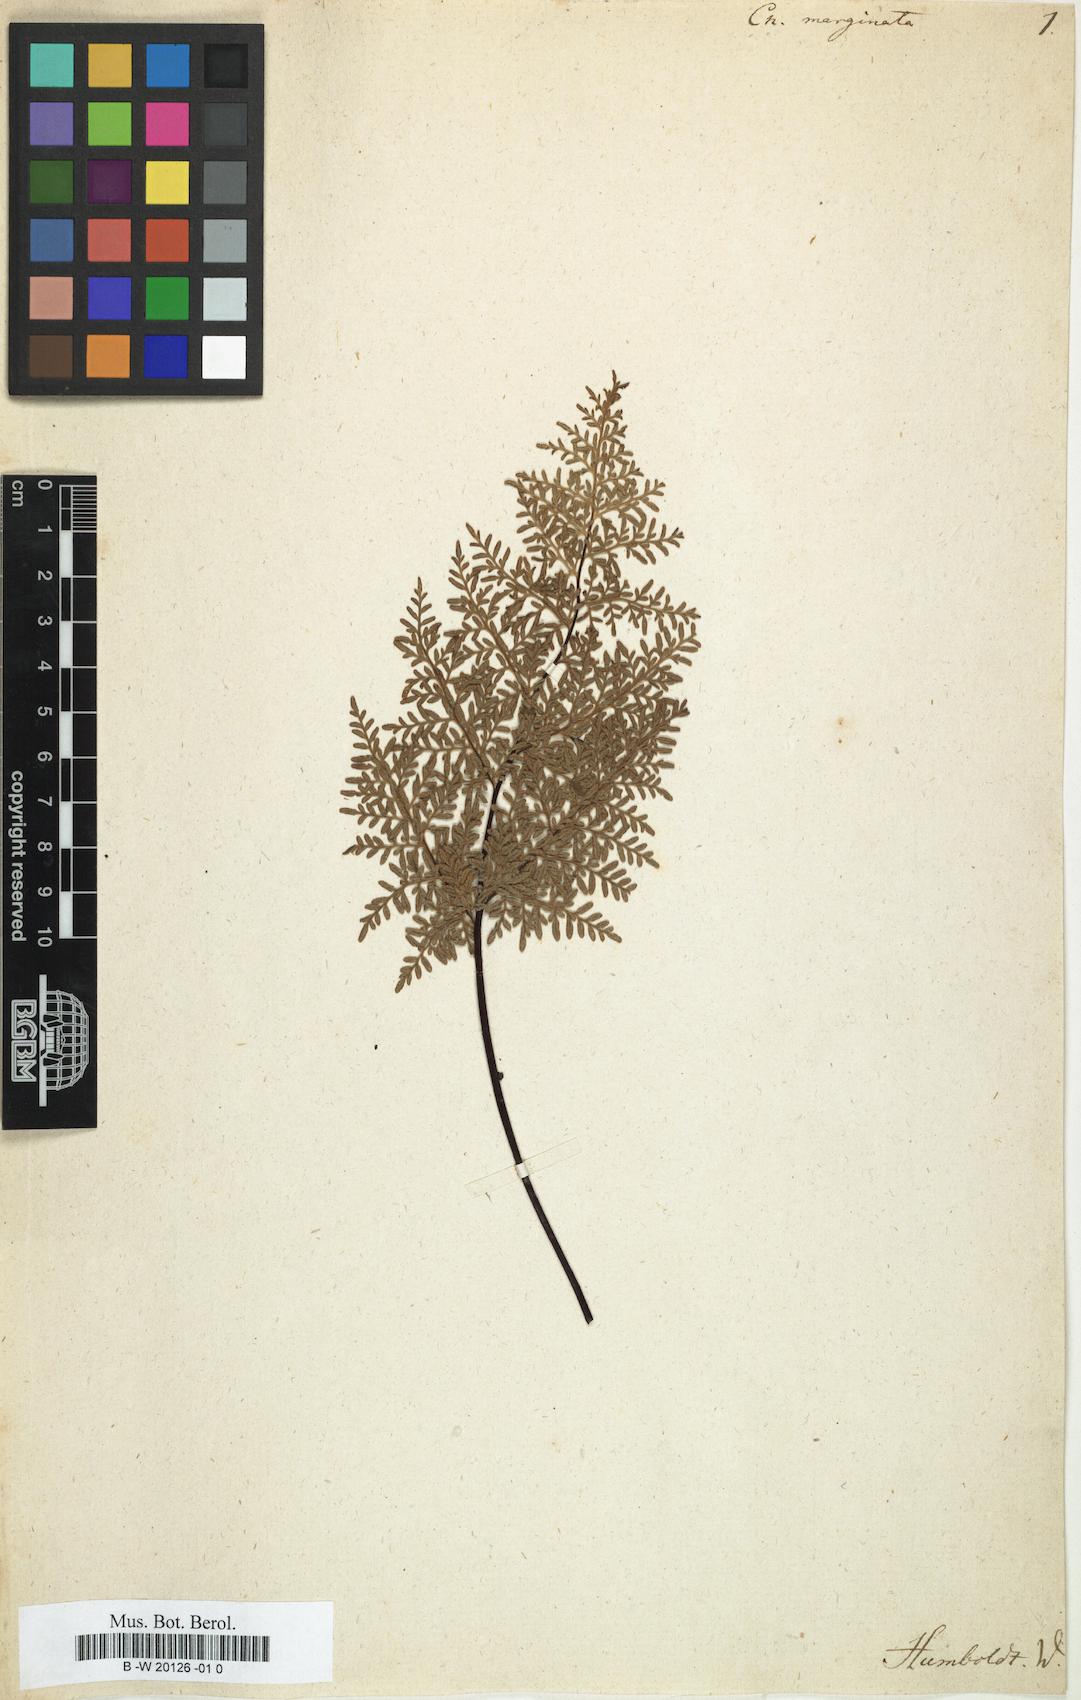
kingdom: Plantae
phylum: Tracheophyta
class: Polypodiopsida
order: Polypodiales
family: Pteridaceae
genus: Gaga
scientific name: Gaga marginata
